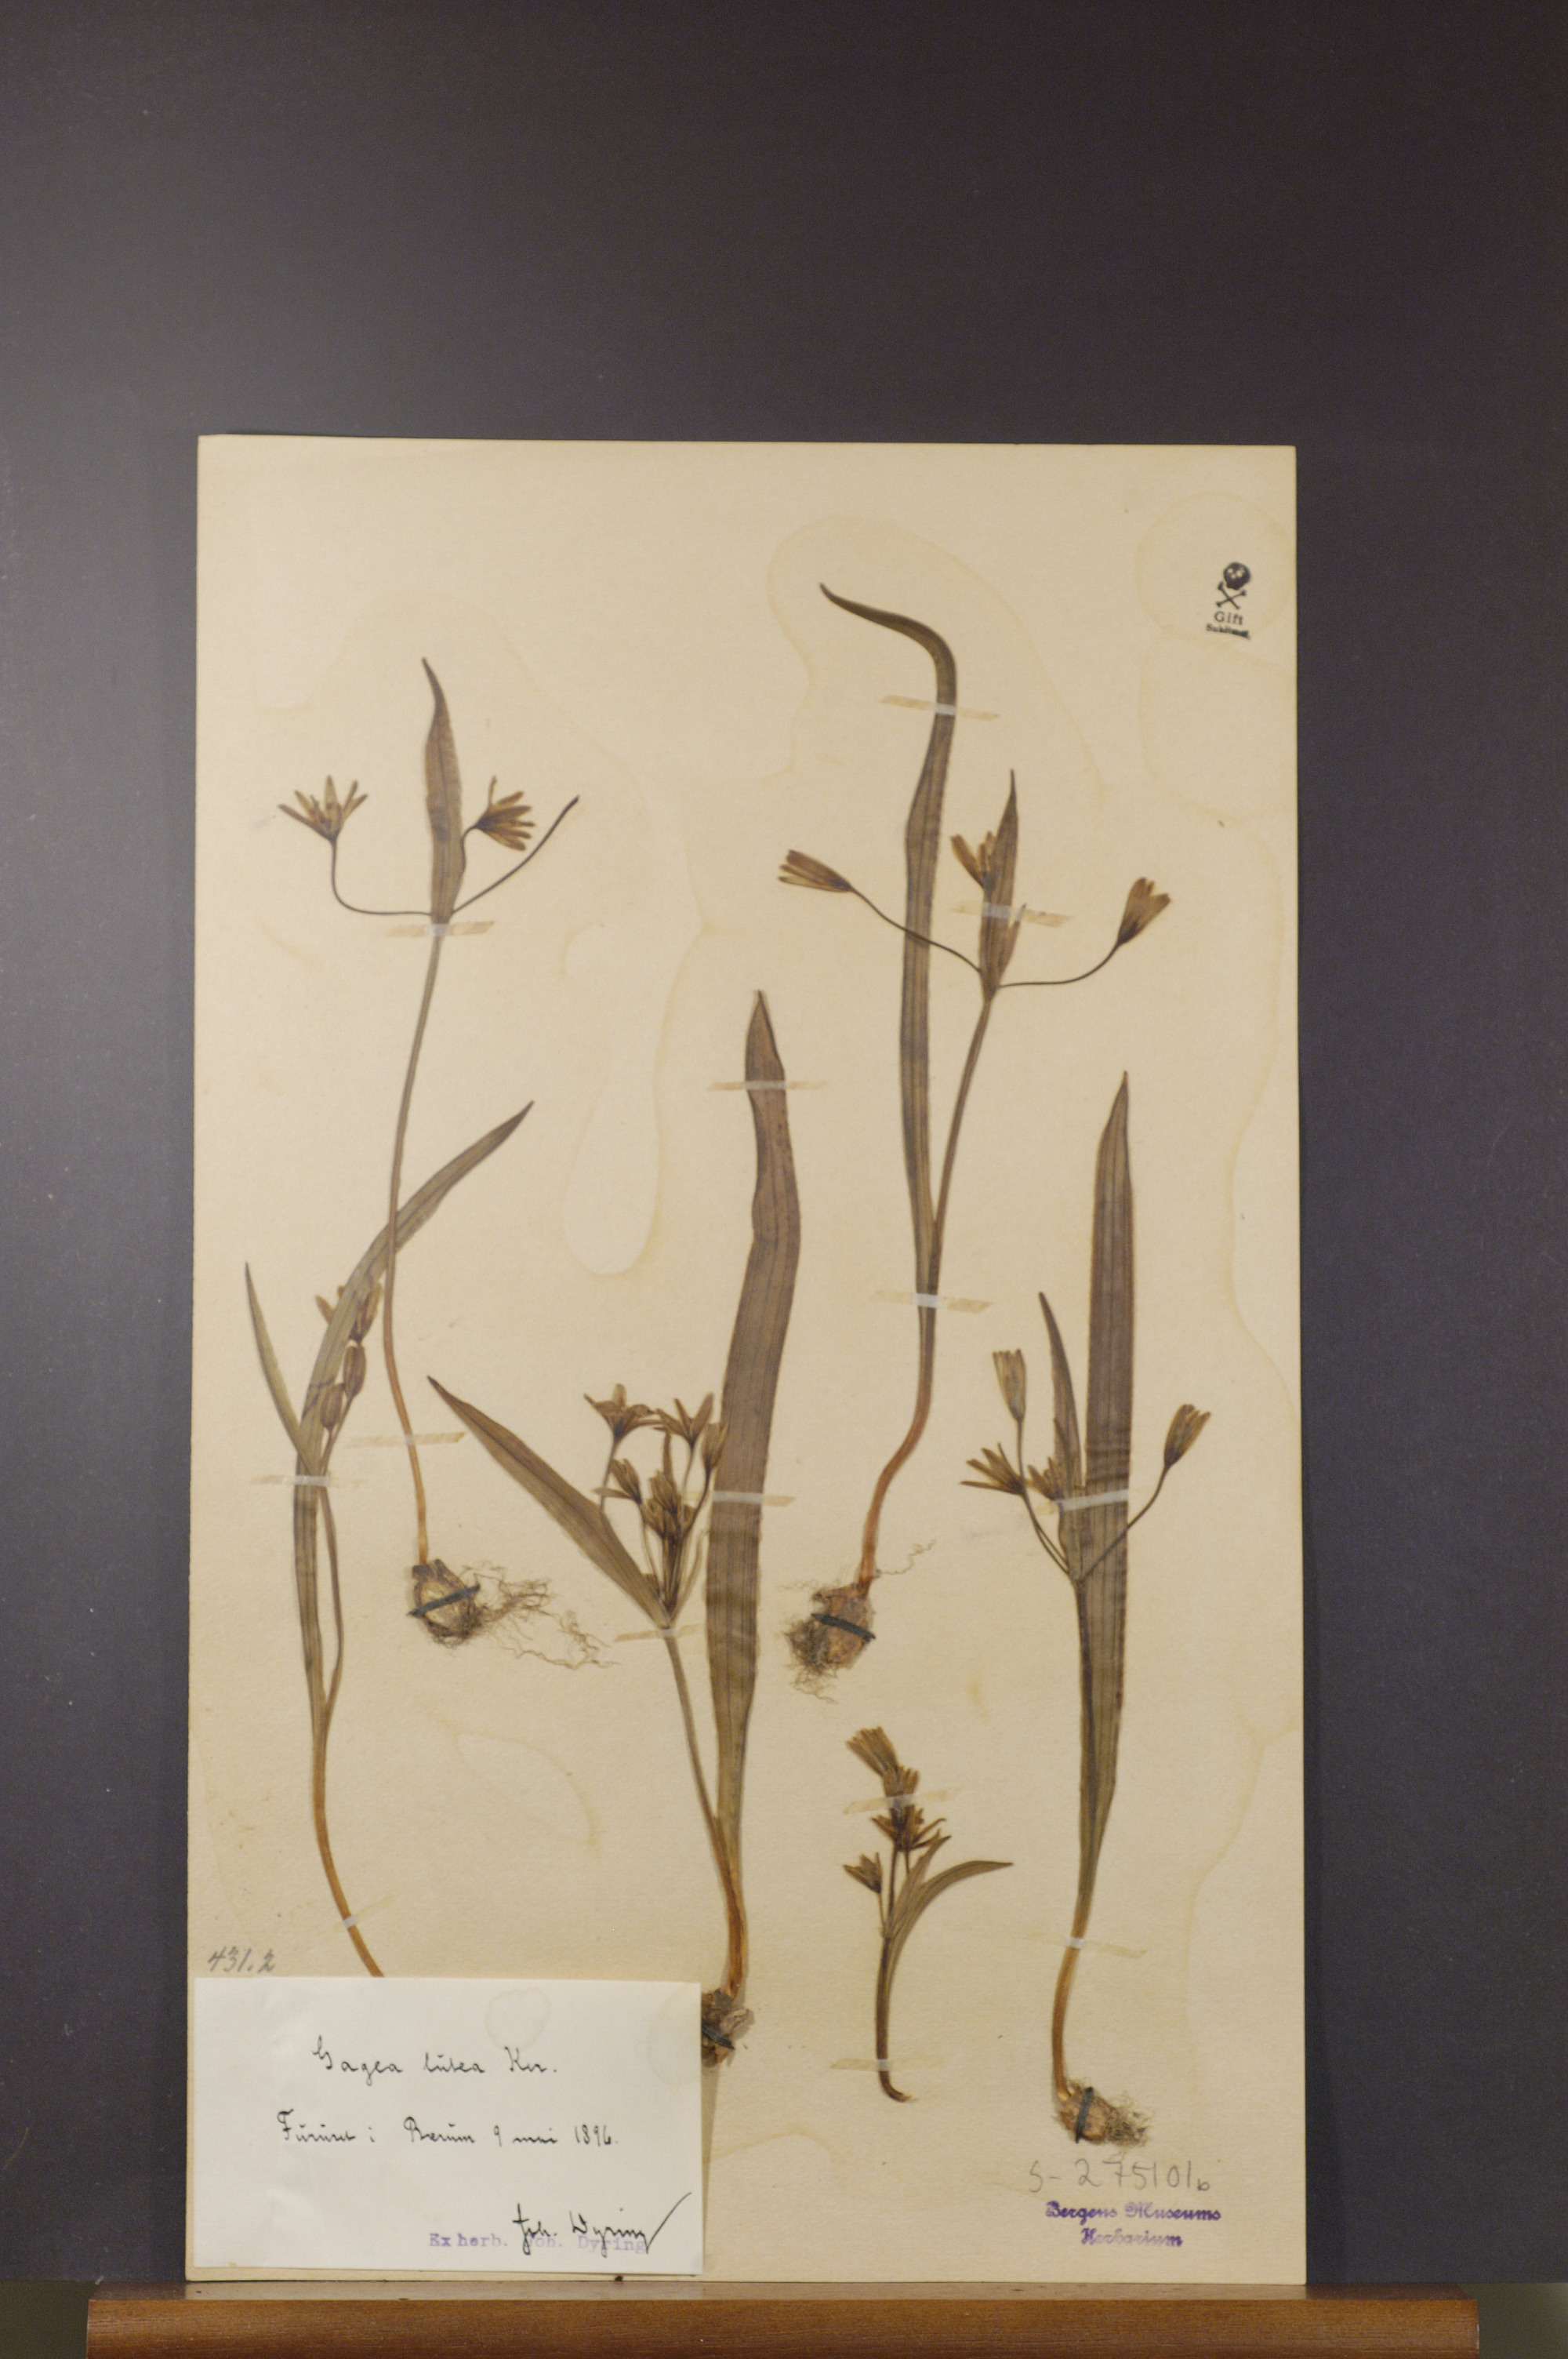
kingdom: Plantae
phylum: Tracheophyta
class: Liliopsida
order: Liliales
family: Liliaceae
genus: Gagea
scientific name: Gagea lutea
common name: Yellow star-of-bethlehem
